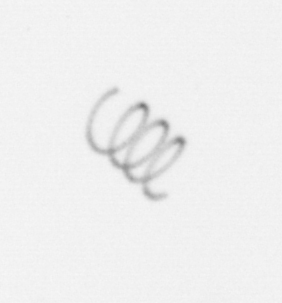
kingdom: Chromista
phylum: Ochrophyta
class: Bacillariophyceae
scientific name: Bacillariophyceae
